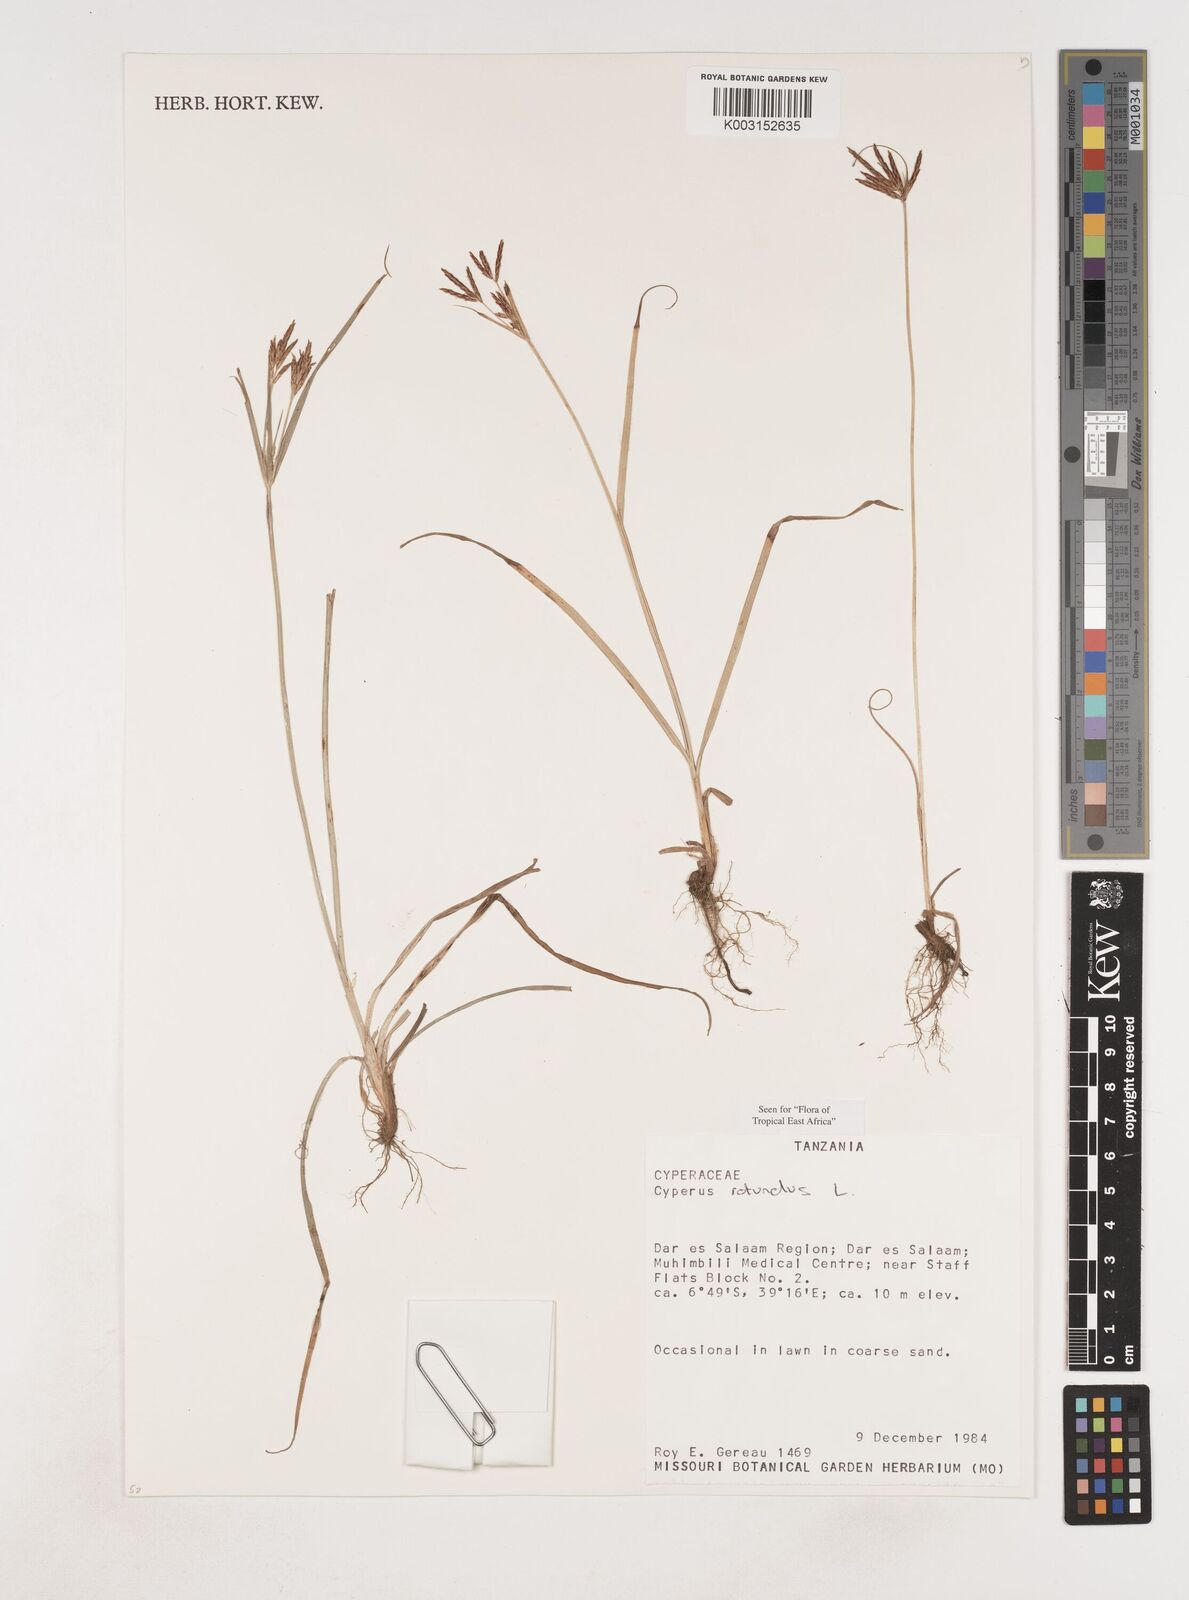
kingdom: Plantae
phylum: Tracheophyta
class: Liliopsida
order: Poales
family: Cyperaceae
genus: Cyperus
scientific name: Cyperus rotundus
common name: Nutgrass
